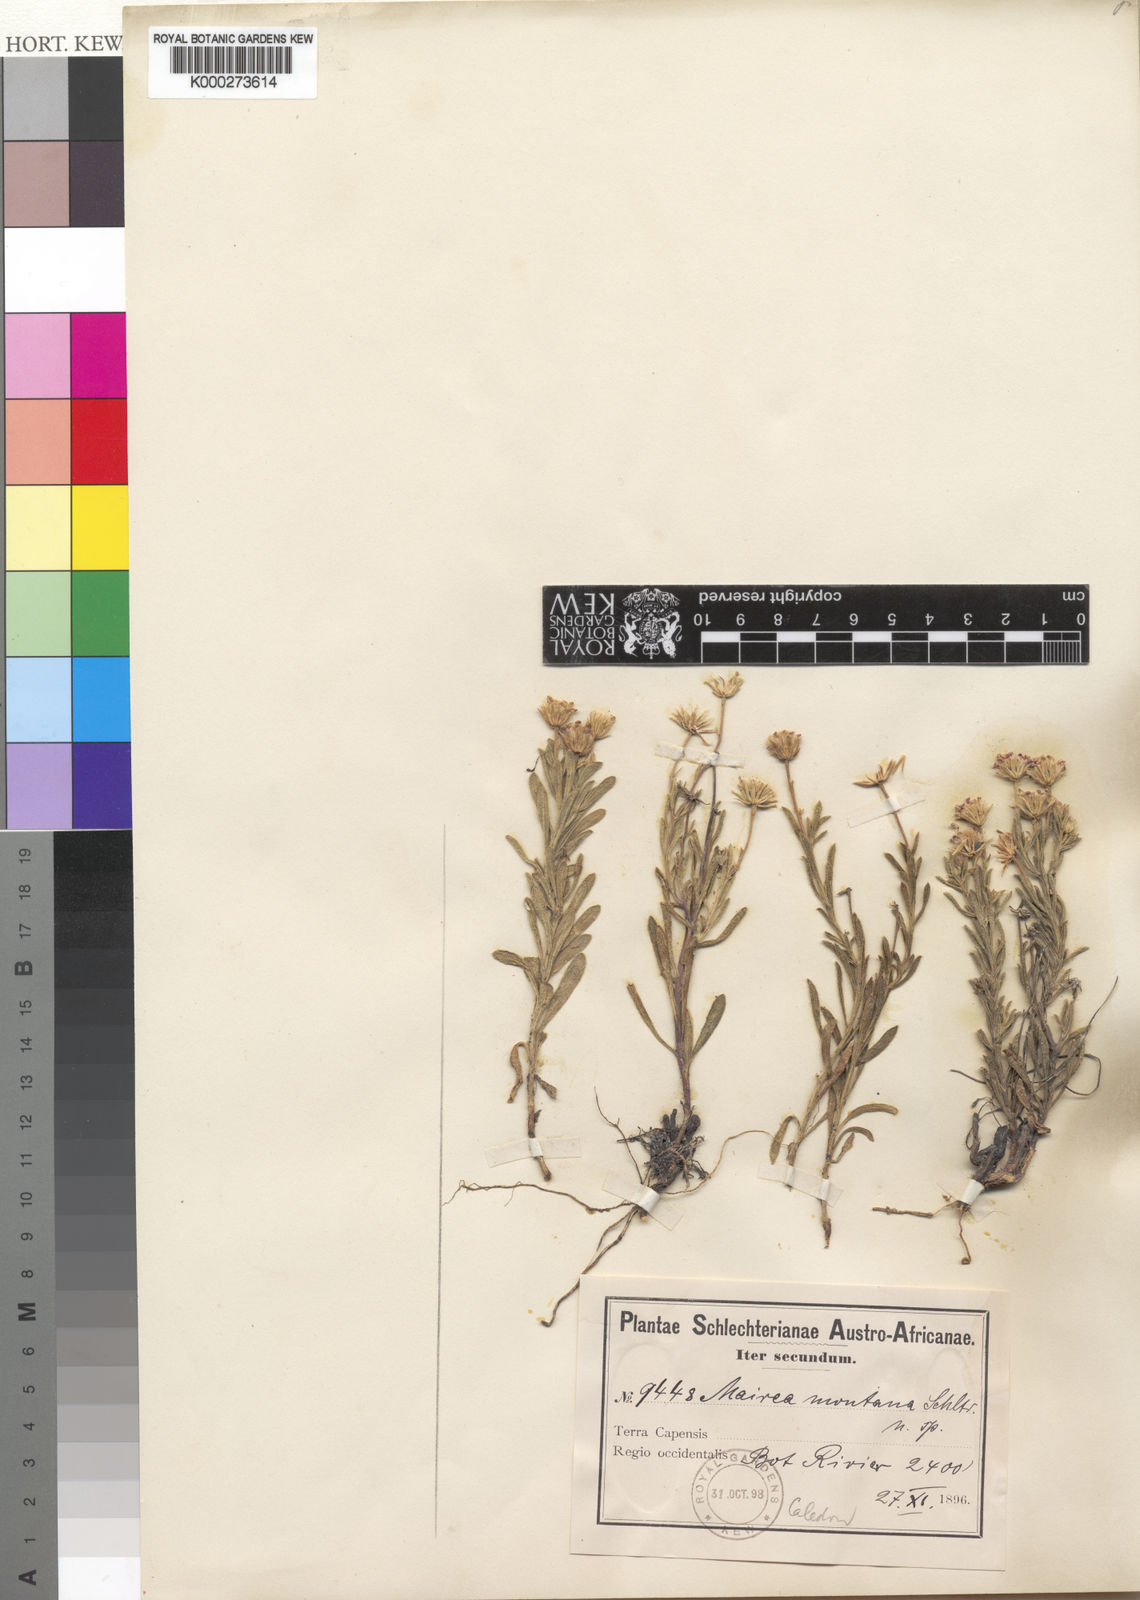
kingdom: Plantae
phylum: Tracheophyta
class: Magnoliopsida
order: Asterales
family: Asteraceae
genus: Zyrphelis
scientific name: Zyrphelis spathulata
